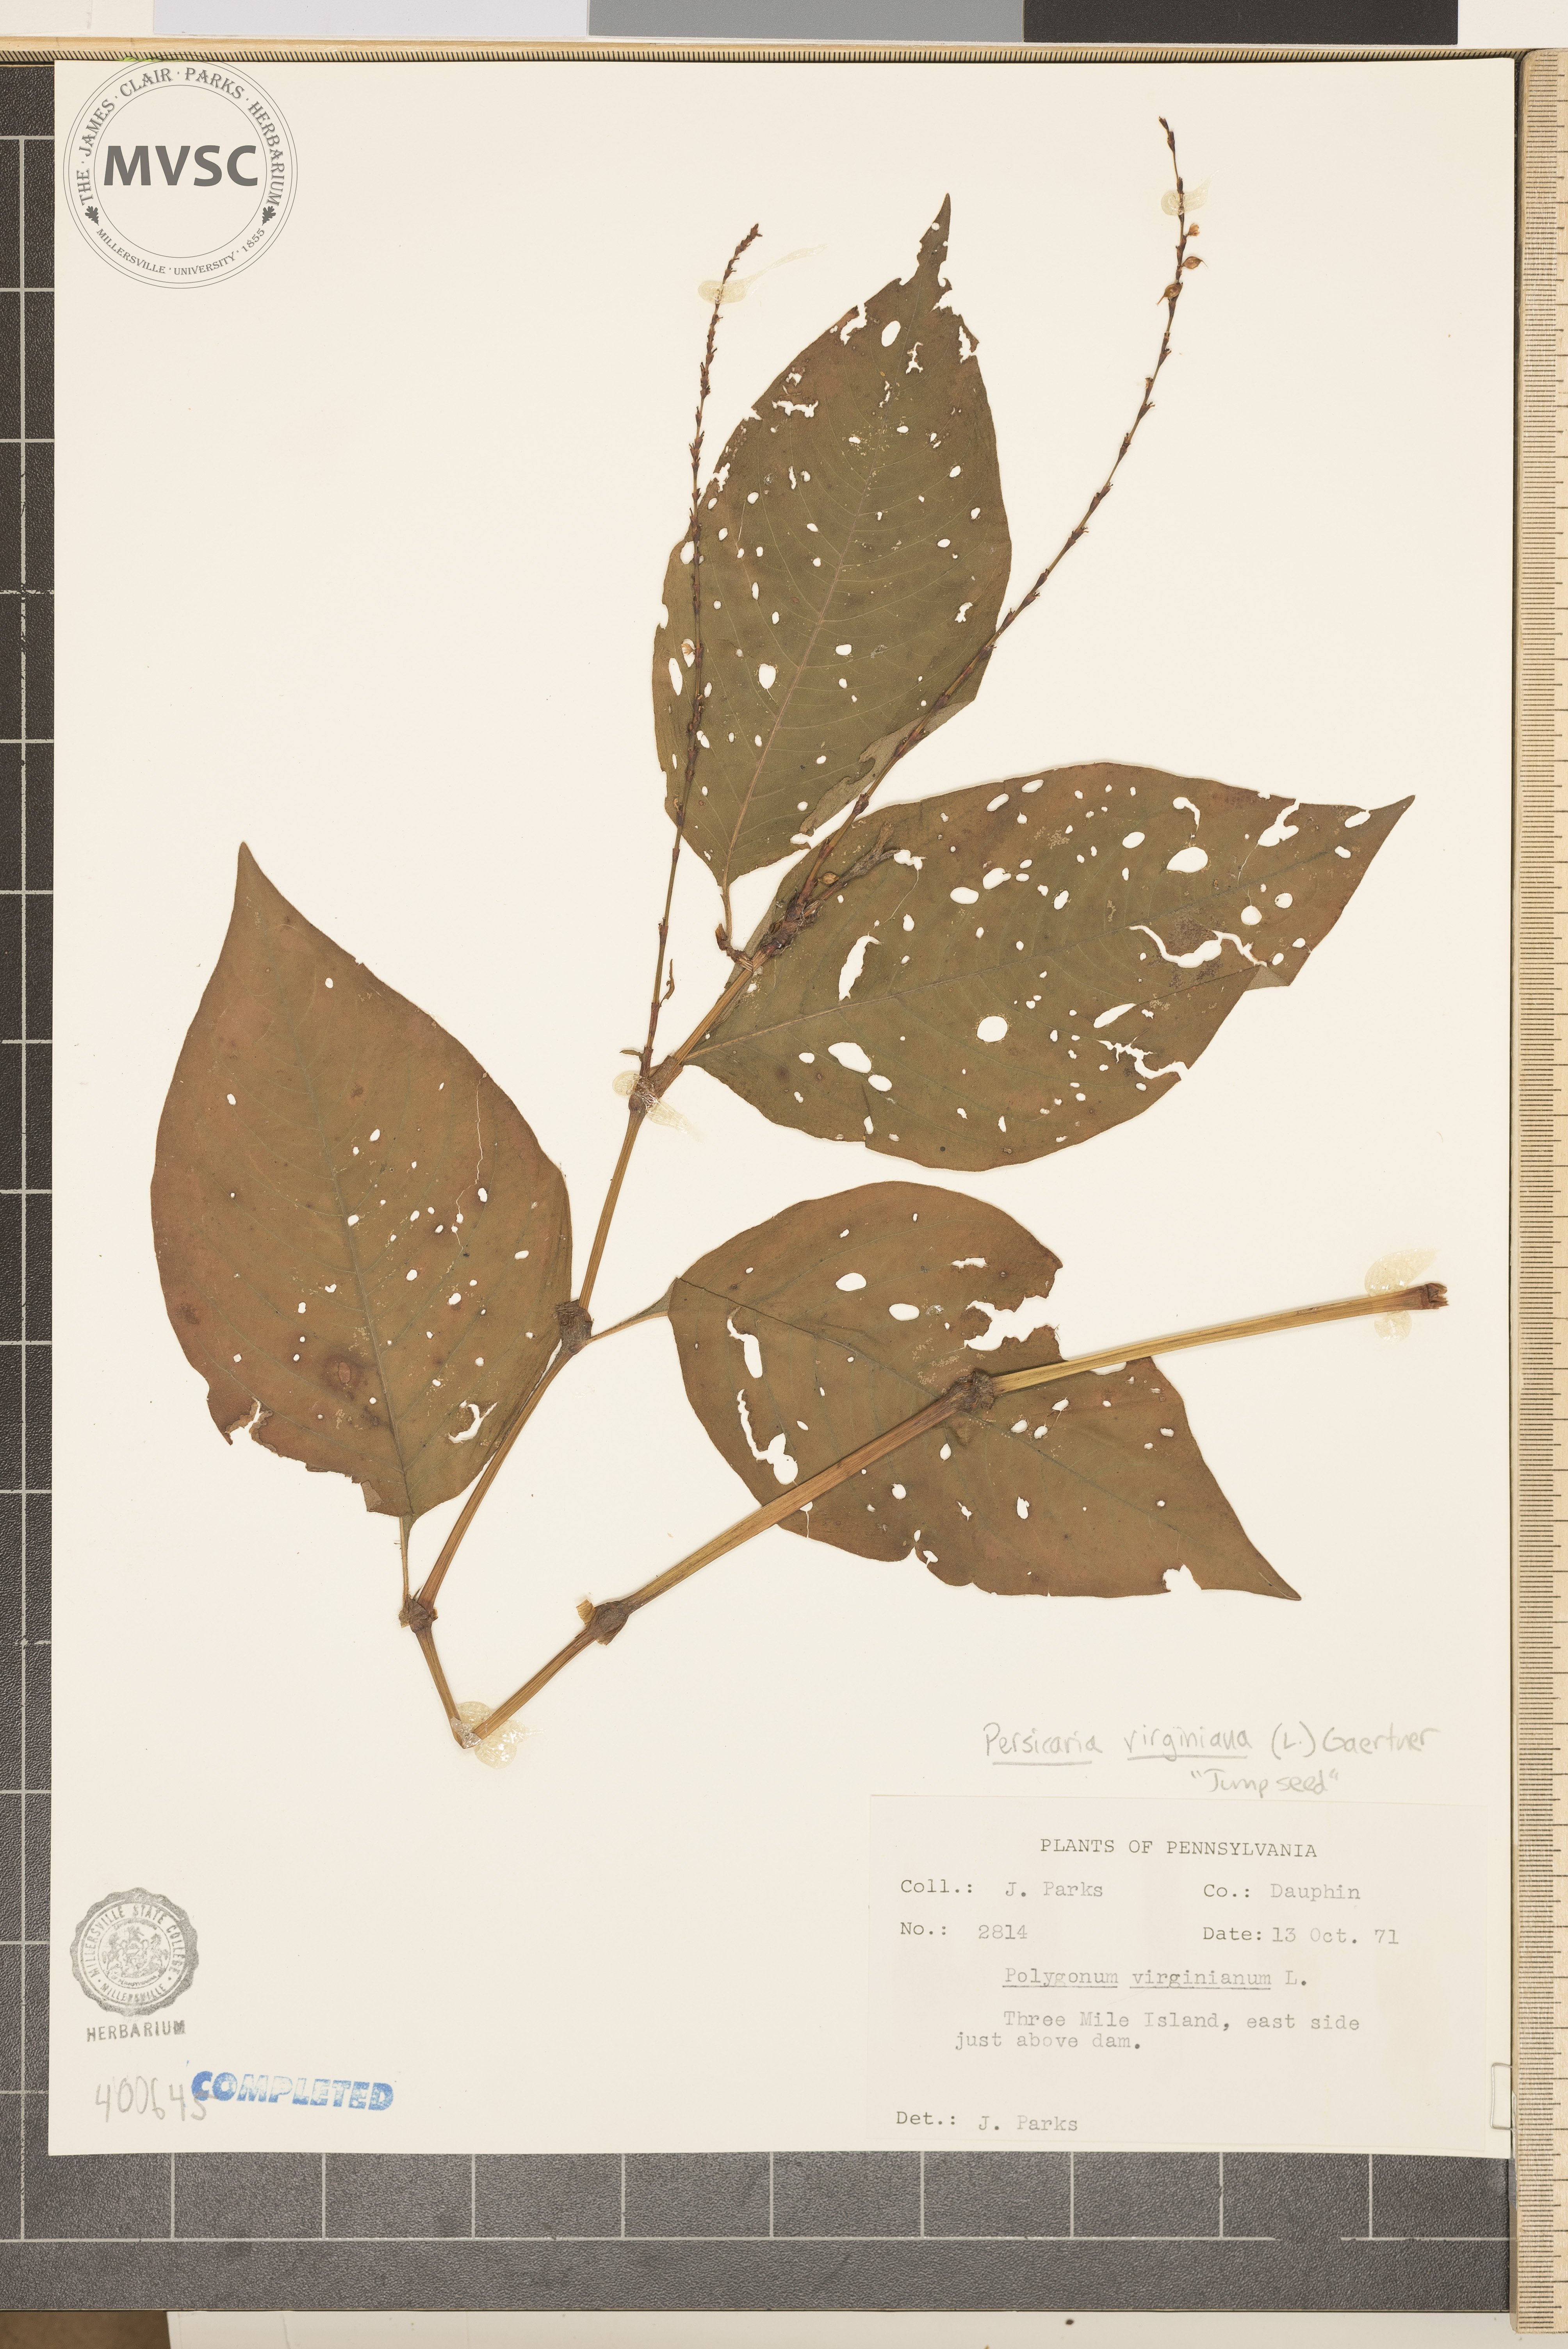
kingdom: Plantae
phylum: Tracheophyta
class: Magnoliopsida
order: Caryophyllales
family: Polygonaceae
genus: Persicaria
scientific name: Persicaria virginiana
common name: Jumpseed
